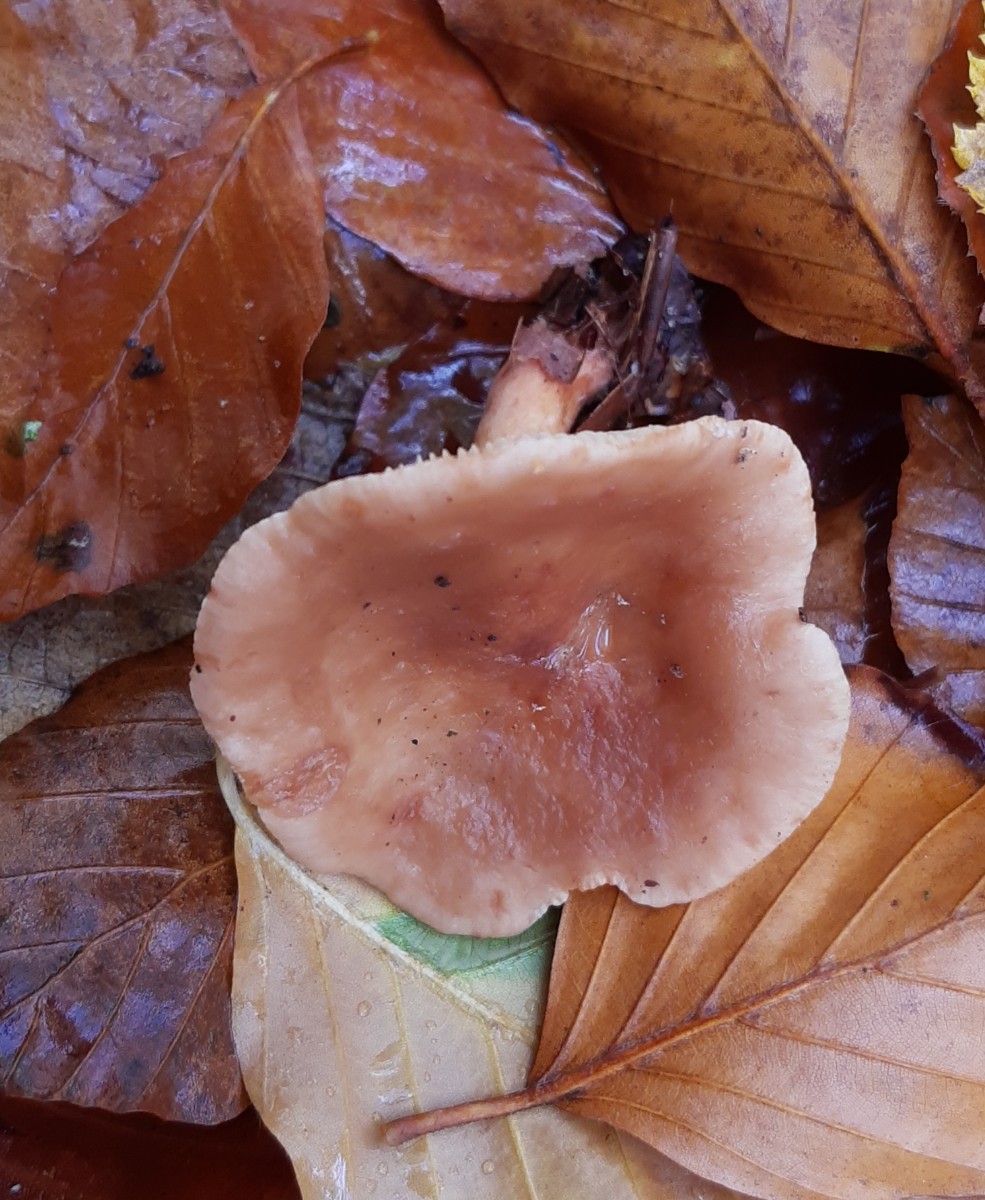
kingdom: Fungi
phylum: Basidiomycota
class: Agaricomycetes
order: Russulales
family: Russulaceae
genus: Lactarius
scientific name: Lactarius subdulcis
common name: sødlig mælkehat
